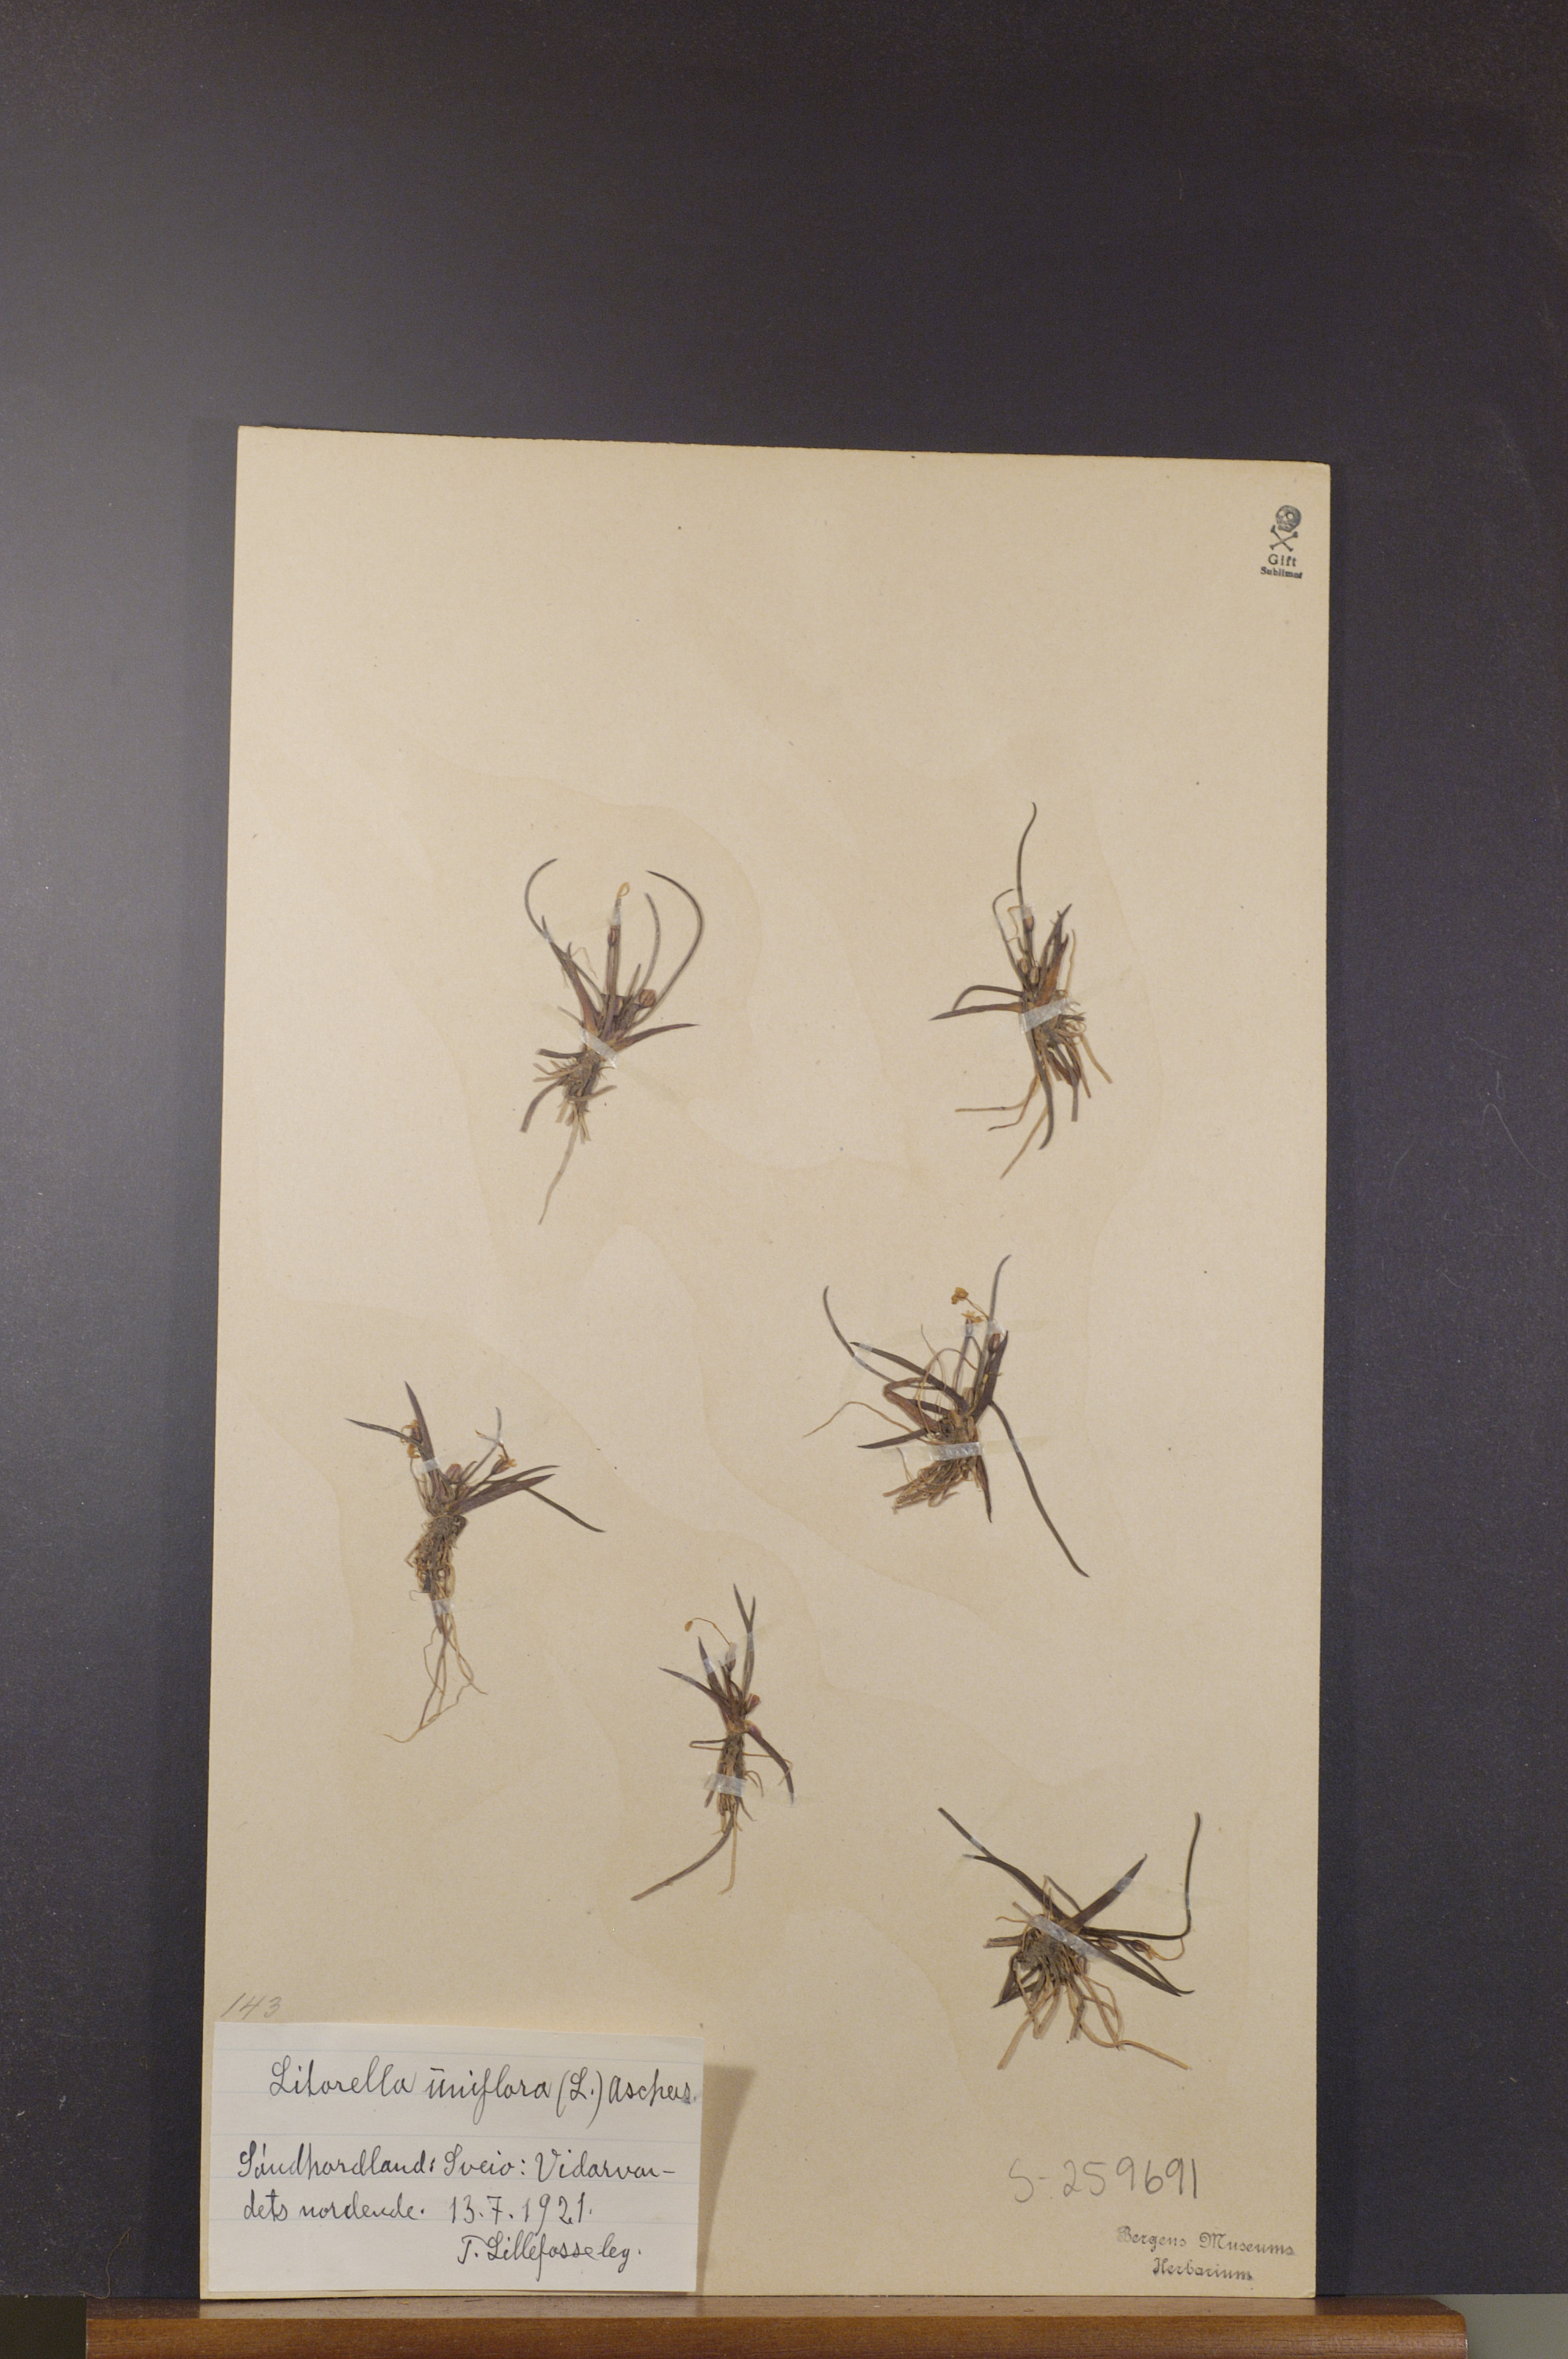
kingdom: Plantae
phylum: Tracheophyta
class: Magnoliopsida
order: Lamiales
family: Plantaginaceae
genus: Littorella
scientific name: Littorella uniflora
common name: Shoreweed
